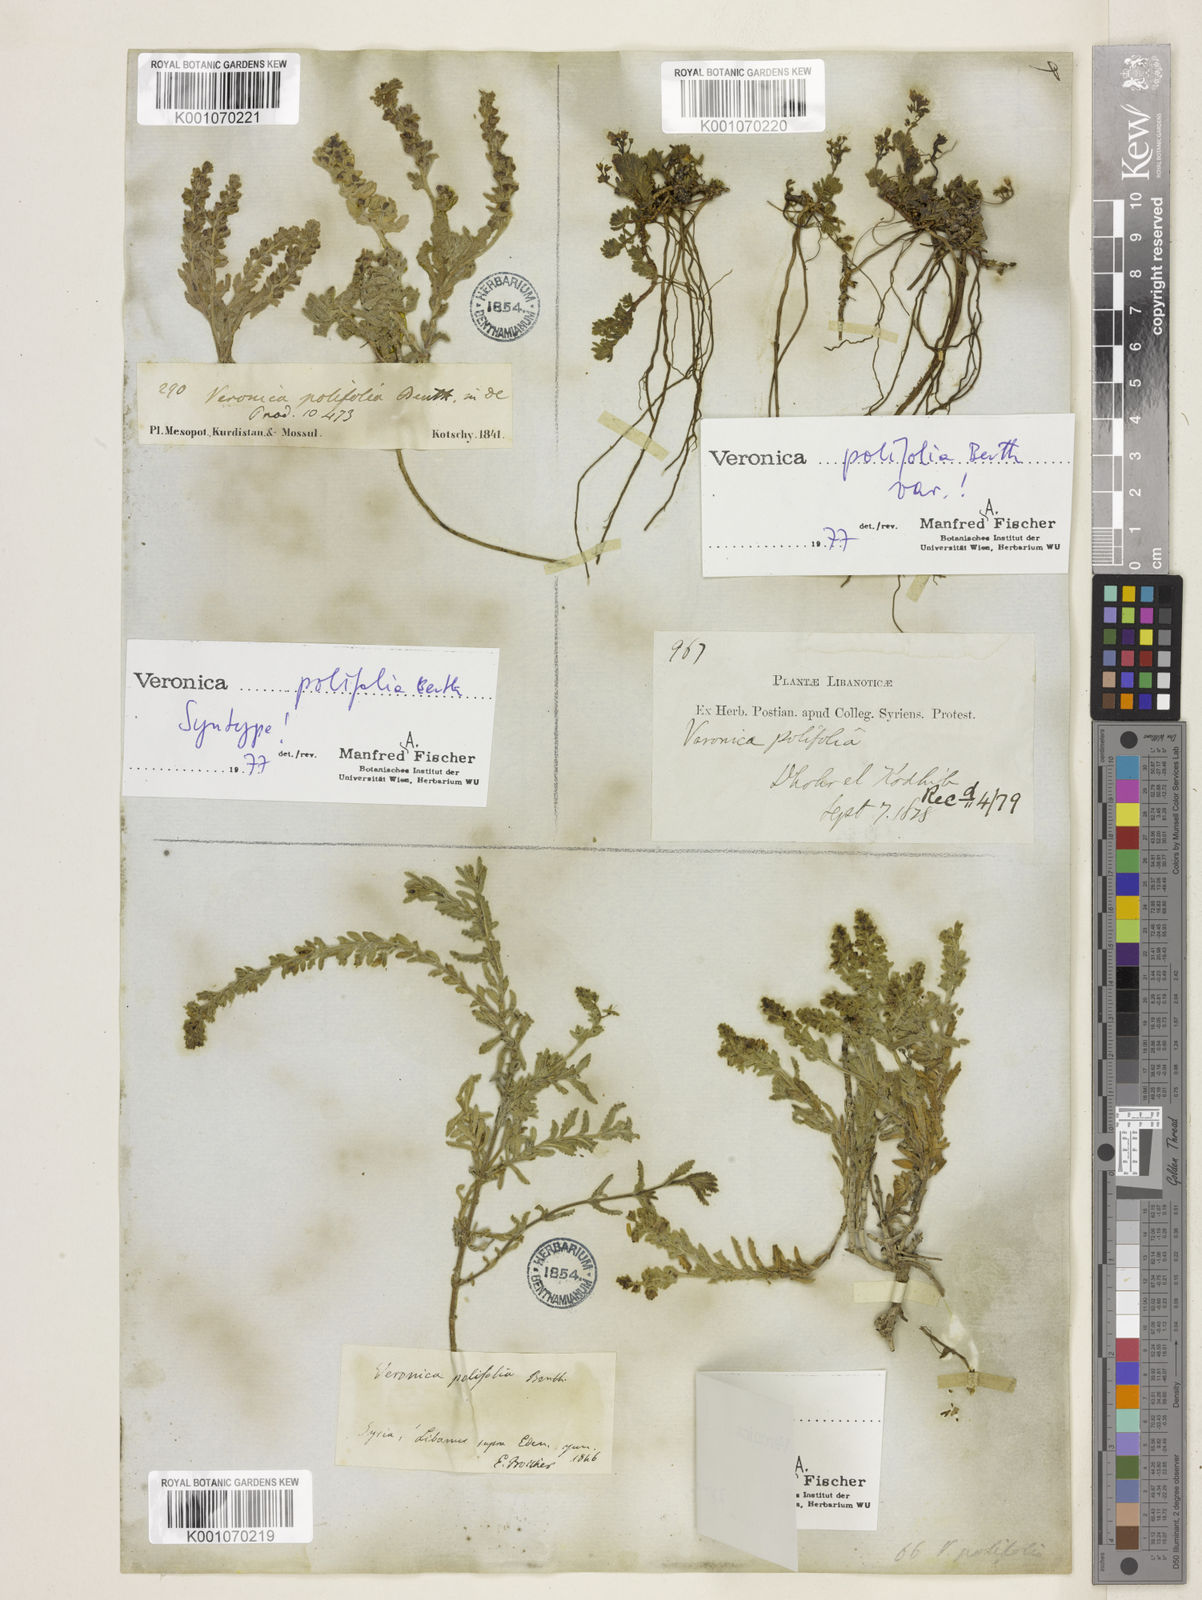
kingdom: Plantae
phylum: Tracheophyta
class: Magnoliopsida
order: Lamiales
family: Plantaginaceae
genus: Veronica
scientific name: Veronica polifolia
